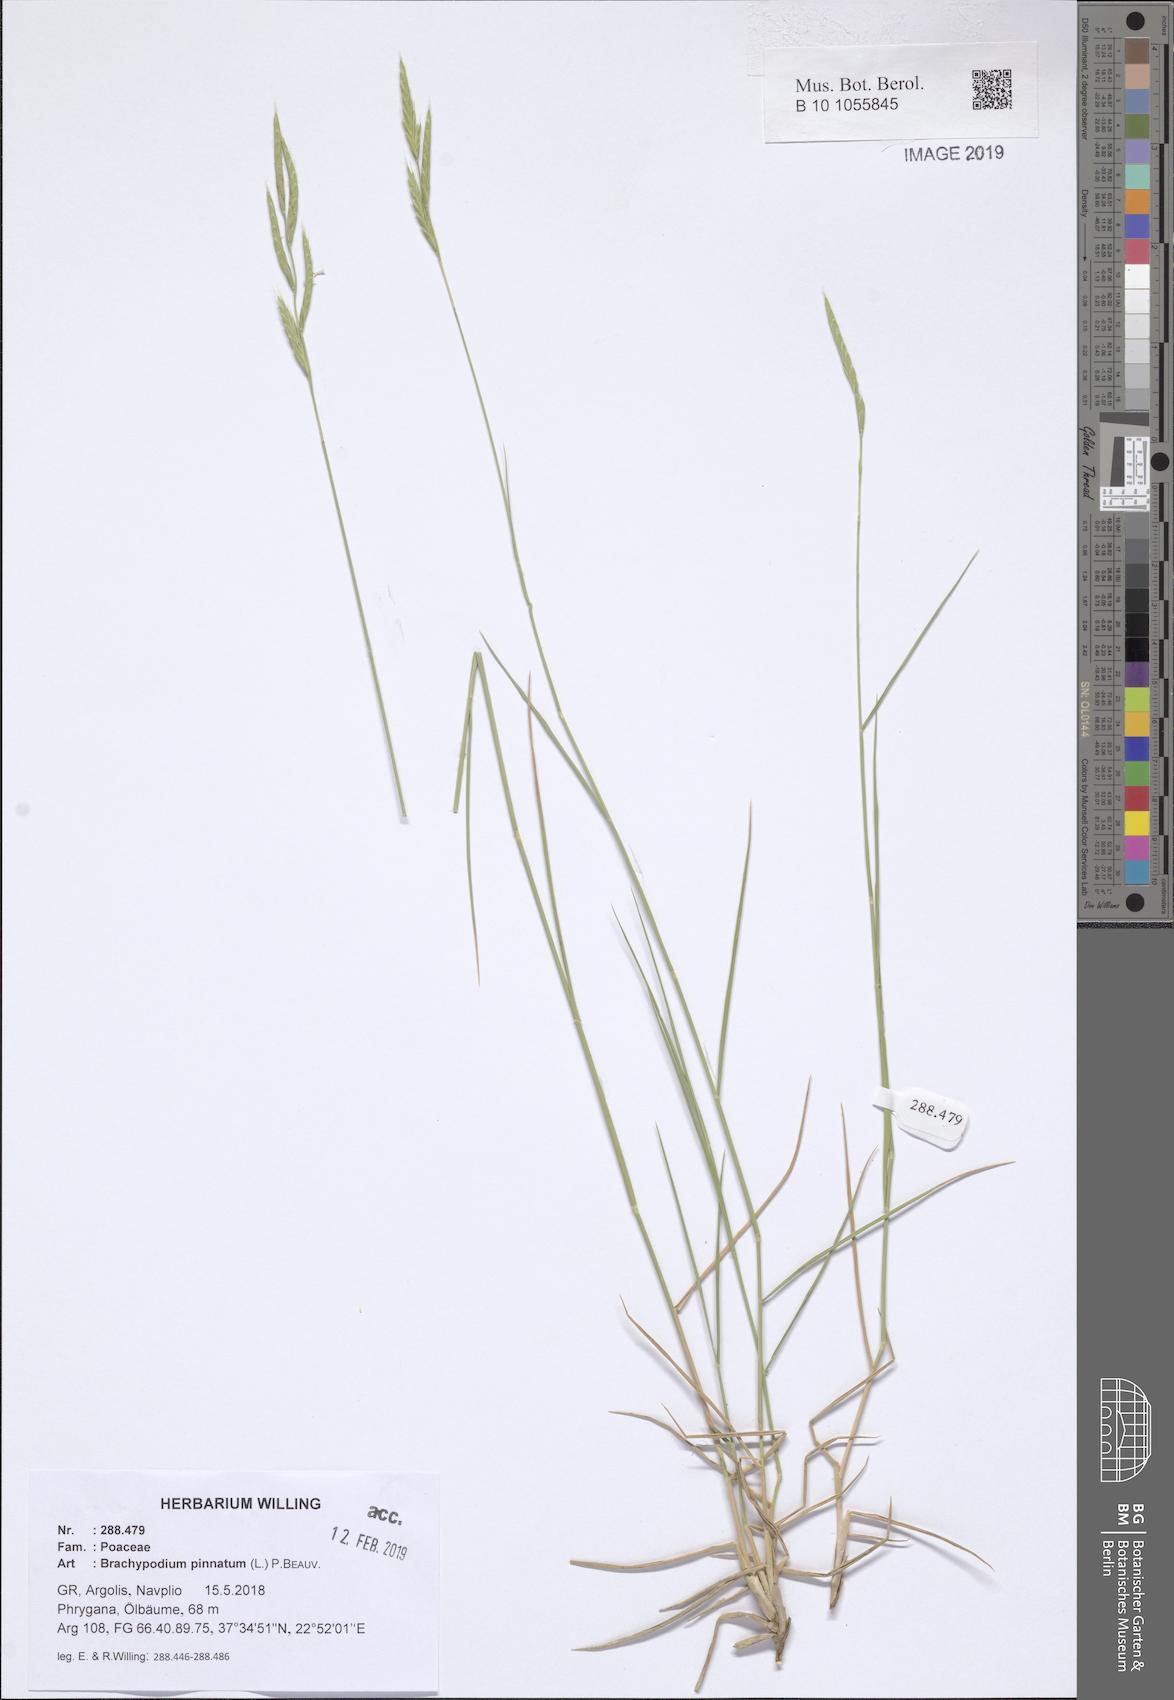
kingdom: Plantae
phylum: Tracheophyta
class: Liliopsida
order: Poales
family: Poaceae
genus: Brachypodium
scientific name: Brachypodium pinnatum
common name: Tor grass
